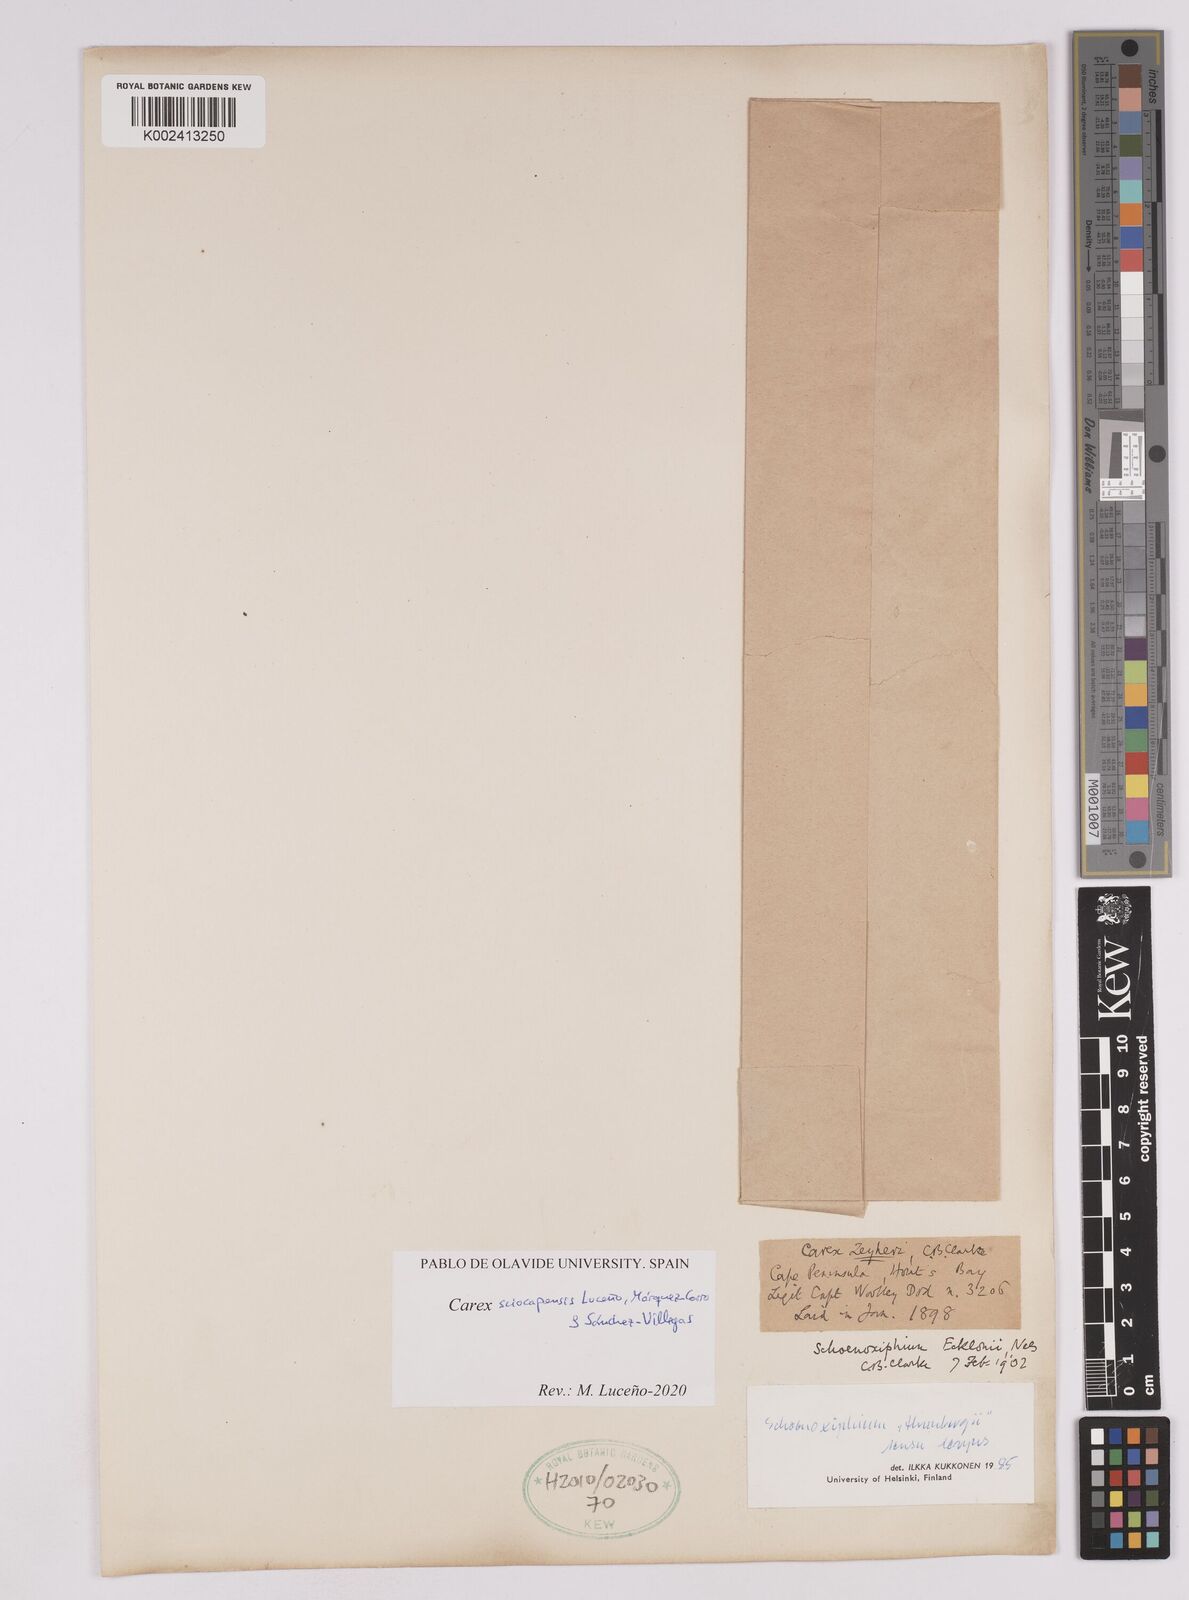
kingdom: Plantae
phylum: Tracheophyta
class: Liliopsida
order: Poales
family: Cyperaceae
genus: Carex
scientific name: Carex lancea
